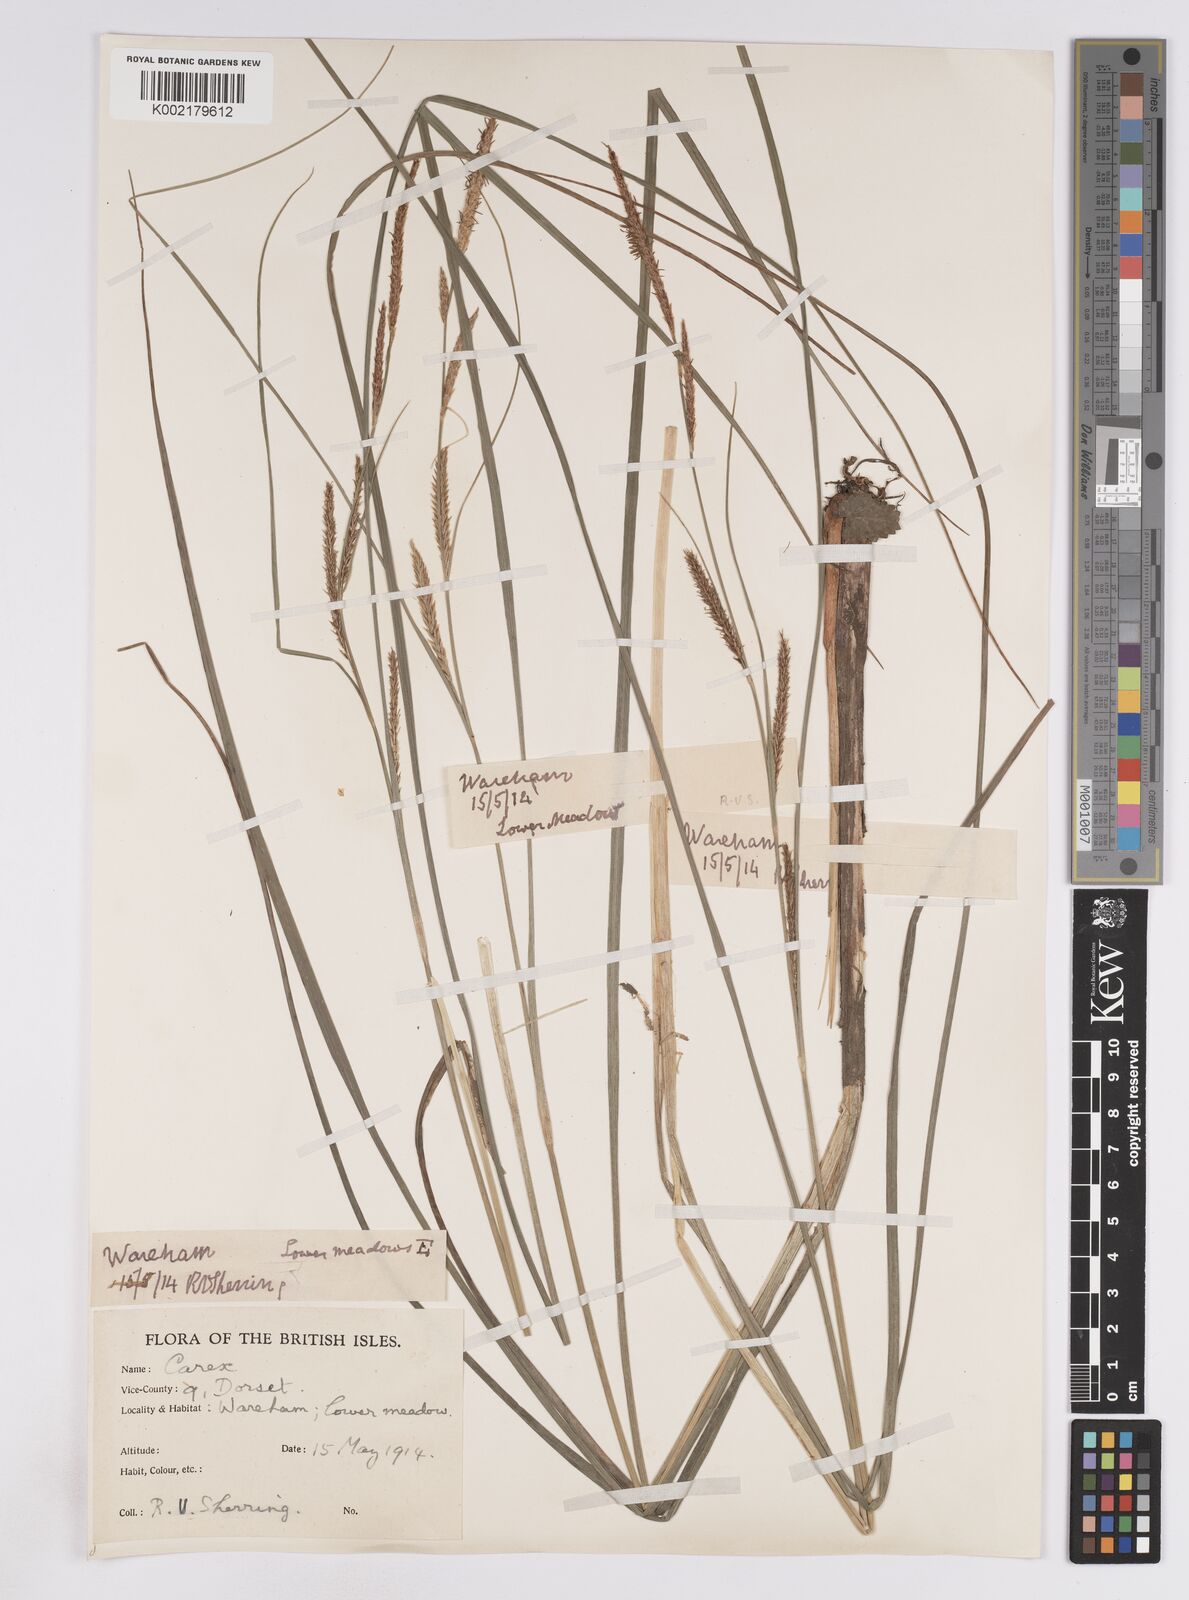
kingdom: Plantae
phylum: Tracheophyta
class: Liliopsida
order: Poales
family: Cyperaceae
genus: Carex
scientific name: Carex rostrata
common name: Bottle sedge
